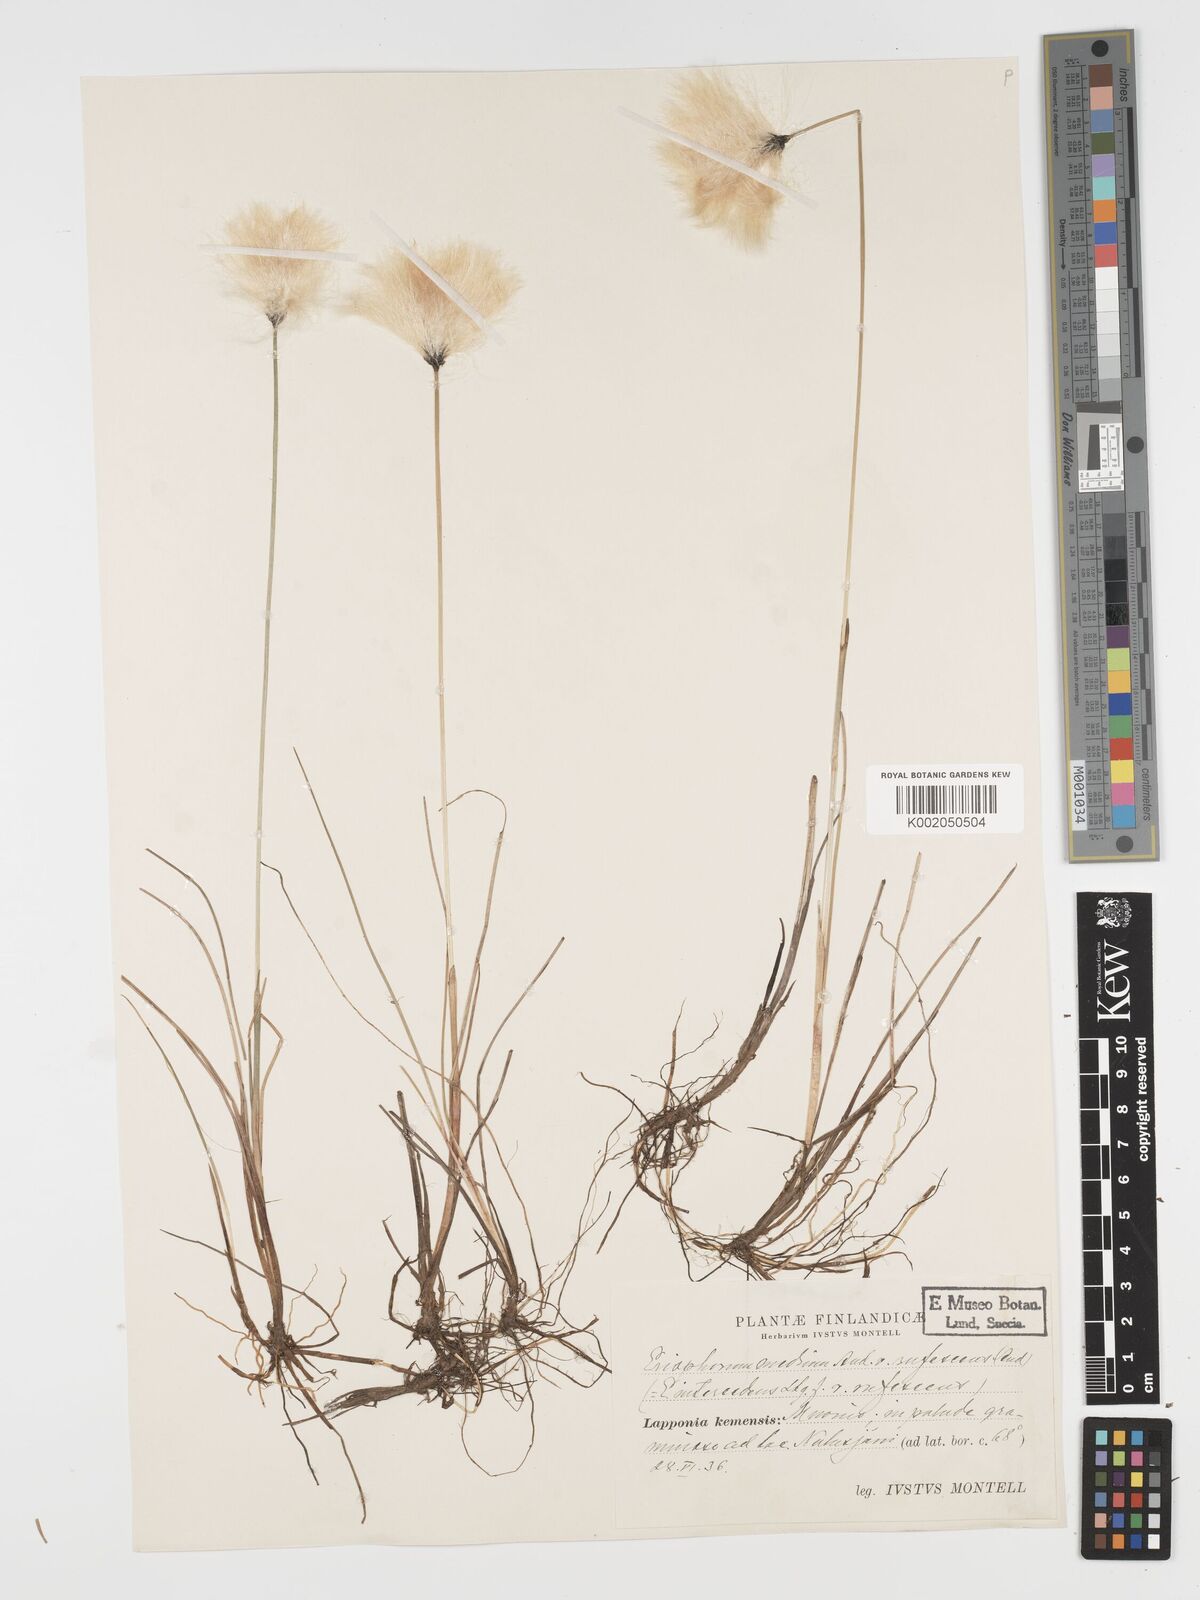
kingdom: Plantae
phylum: Tracheophyta
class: Liliopsida
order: Poales
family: Cyperaceae
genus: Eriophorum
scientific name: Eriophorum medium
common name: Intermediate cottongrass
